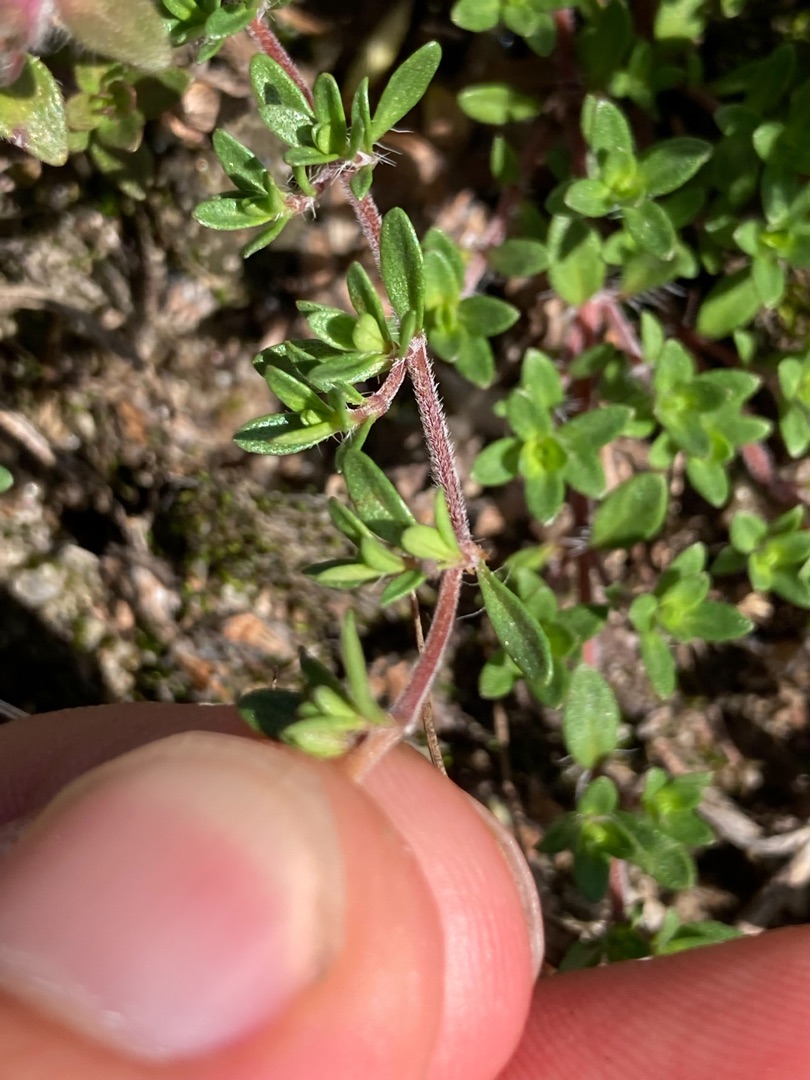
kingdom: Plantae
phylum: Tracheophyta
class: Magnoliopsida
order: Lamiales
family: Lamiaceae
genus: Thymus
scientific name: Thymus serpyllum
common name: Smalbladet timian
